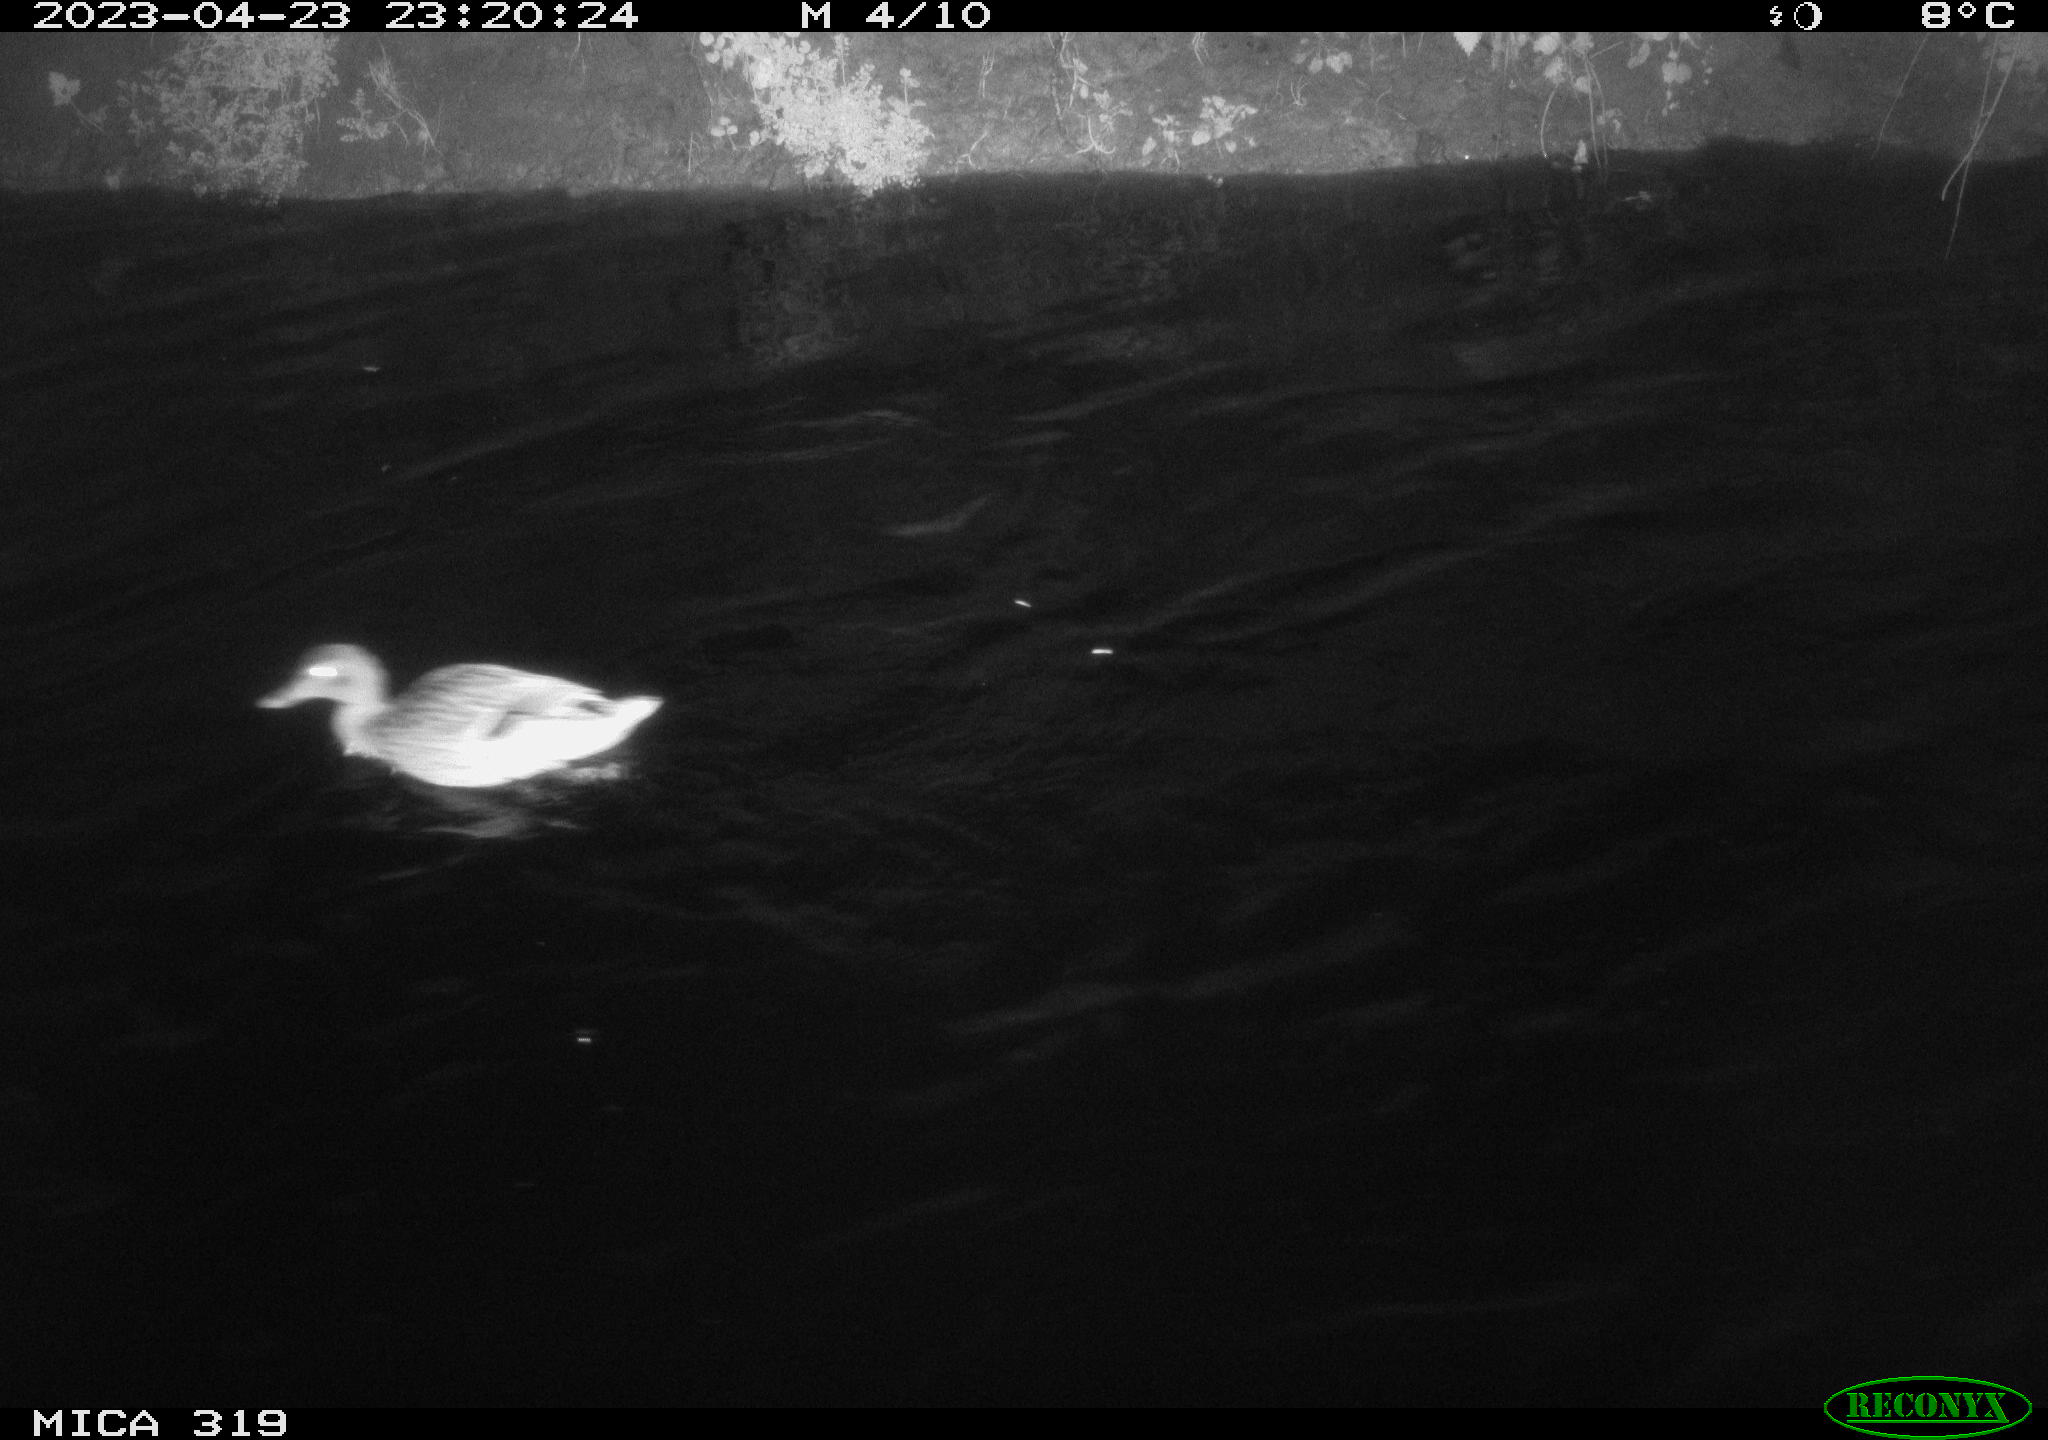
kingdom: Animalia
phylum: Chordata
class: Aves
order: Anseriformes
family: Anatidae
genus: Anas
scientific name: Anas
